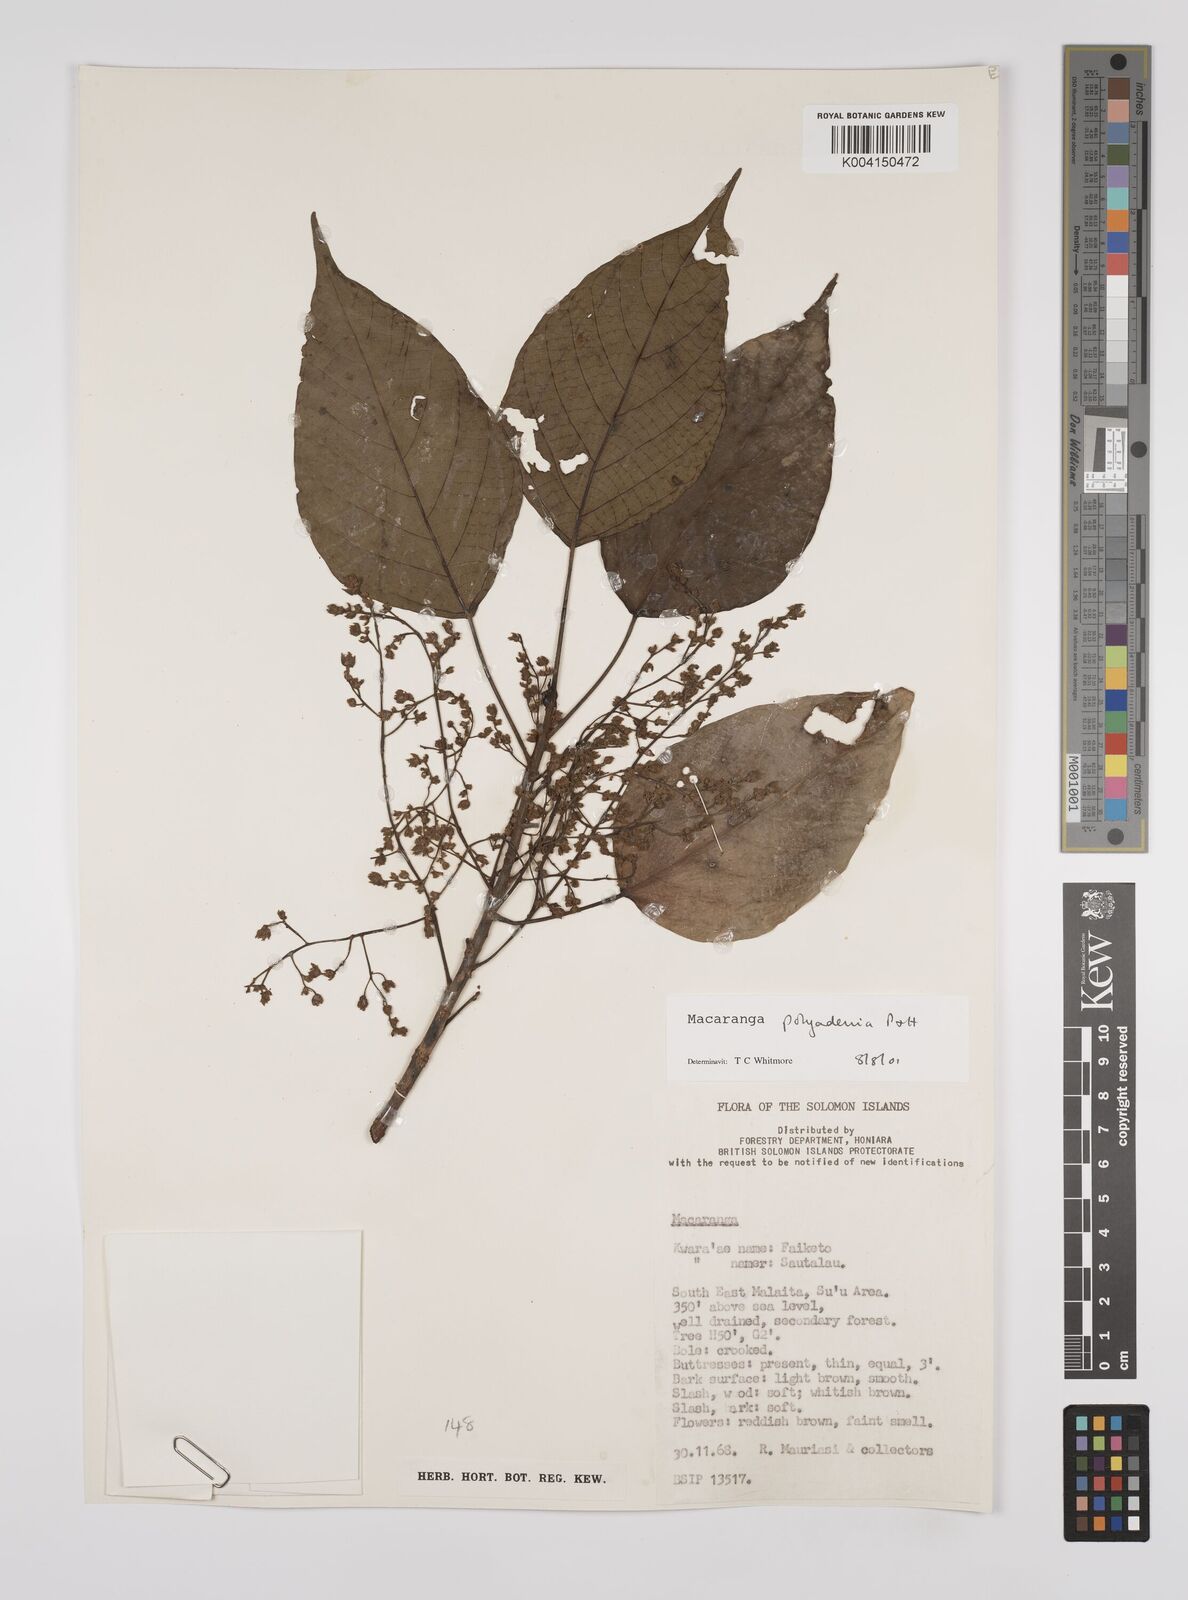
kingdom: Plantae
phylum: Tracheophyta
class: Magnoliopsida
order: Malpighiales
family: Euphorbiaceae
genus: Macaranga
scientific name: Macaranga polyadenia
